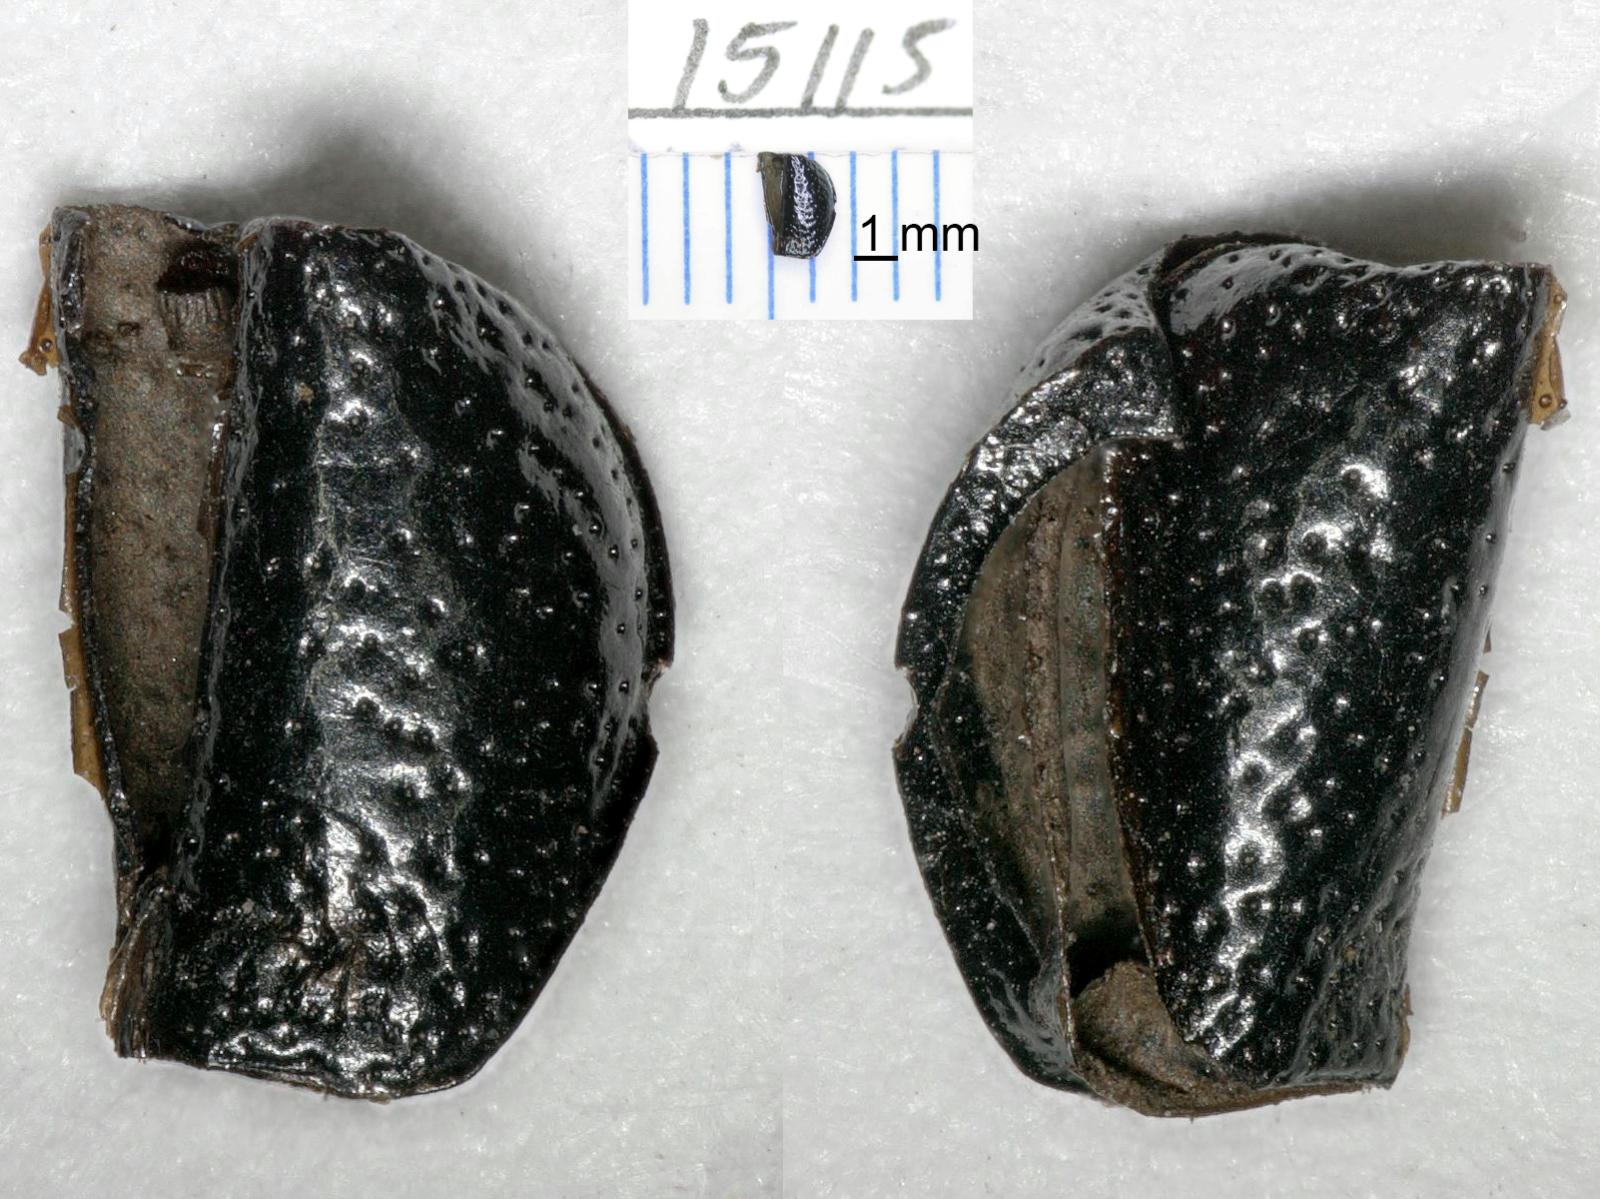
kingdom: Animalia
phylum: Arthropoda
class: Insecta
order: Coleoptera
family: Carabidae
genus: Dicheirus
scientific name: Dicheirus
